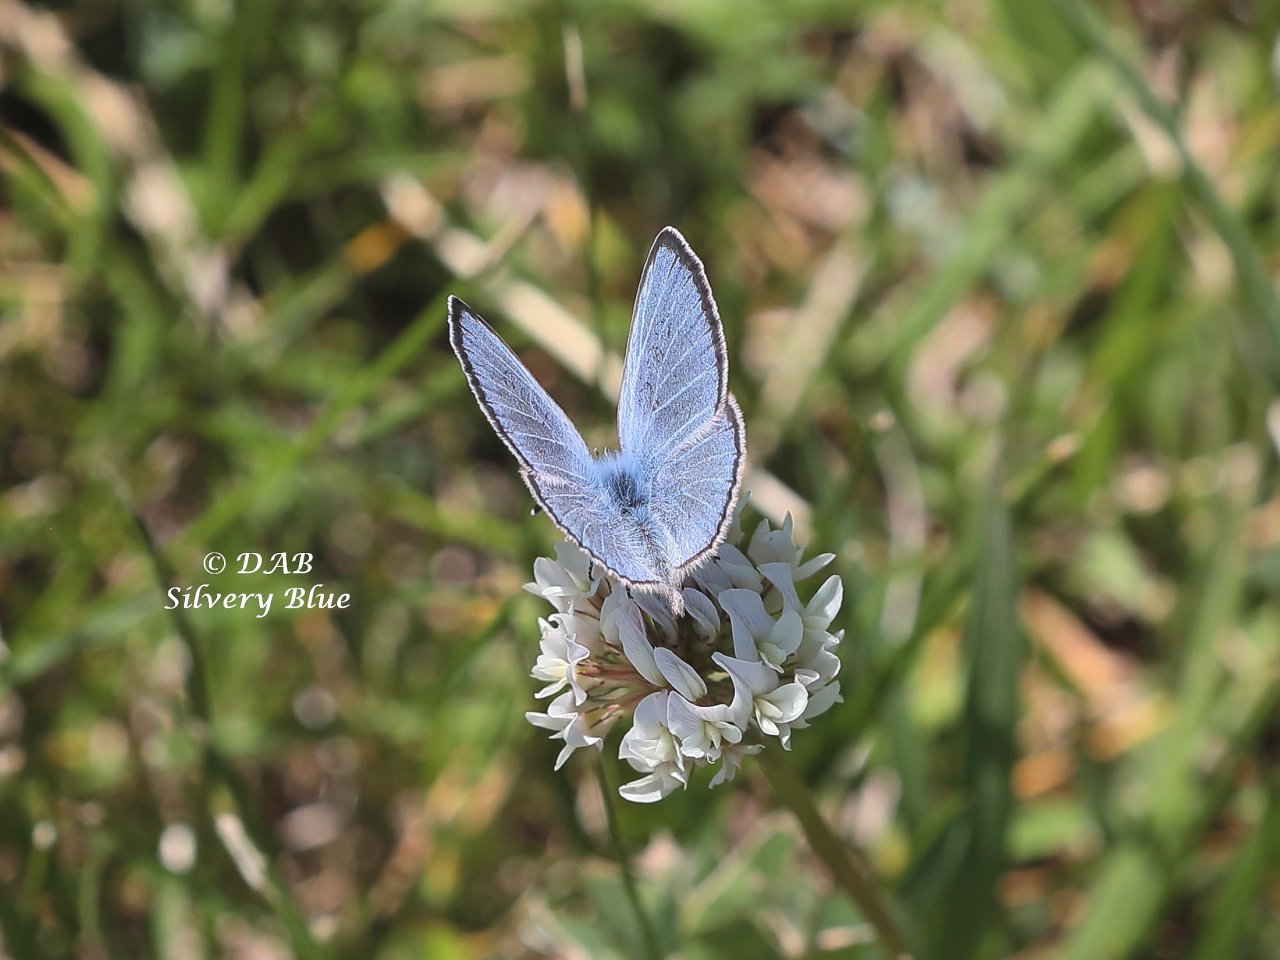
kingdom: Animalia
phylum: Arthropoda
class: Insecta
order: Lepidoptera
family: Lycaenidae
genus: Glaucopsyche
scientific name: Glaucopsyche lygdamus
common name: Silvery Blue
